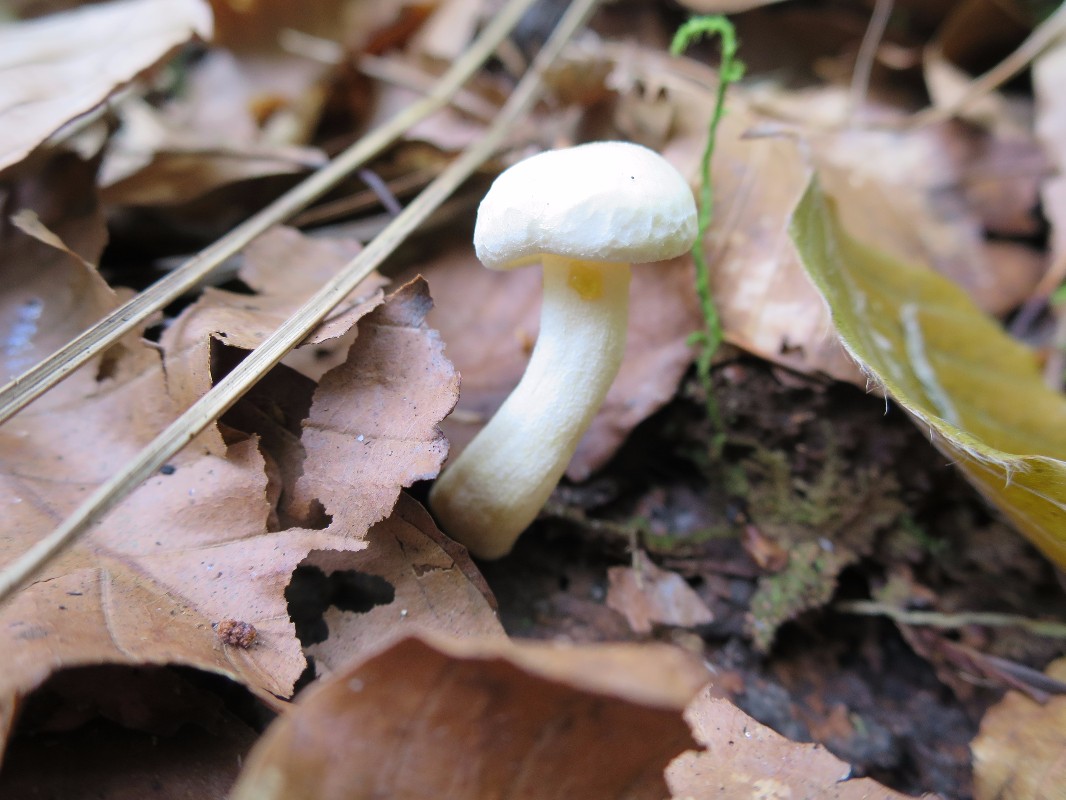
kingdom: Fungi
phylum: Basidiomycota
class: Agaricomycetes
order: Agaricales
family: Hygrophoraceae
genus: Hygrophorus
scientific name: Hygrophorus chrysodon
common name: gulfnugget sneglehat
